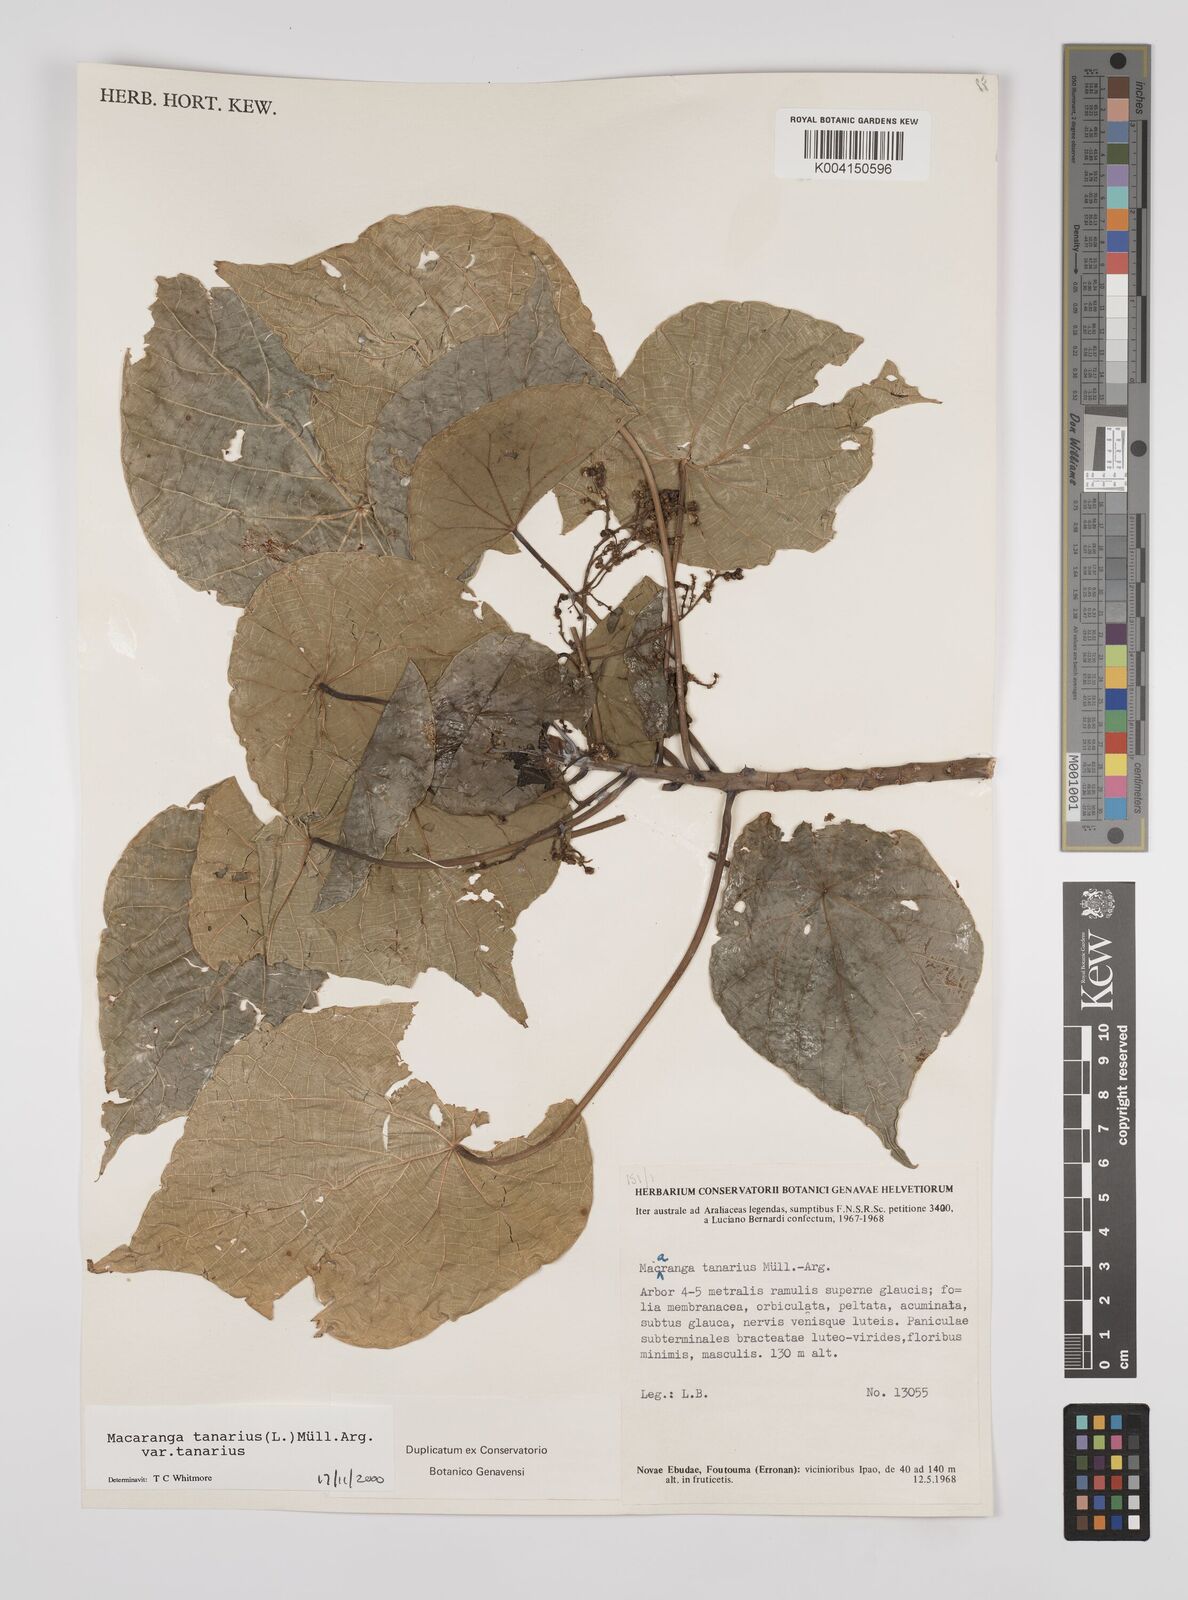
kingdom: Plantae
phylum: Tracheophyta
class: Magnoliopsida
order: Malpighiales
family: Euphorbiaceae
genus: Macaranga
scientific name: Macaranga tanarius
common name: Parasol leaf tree
